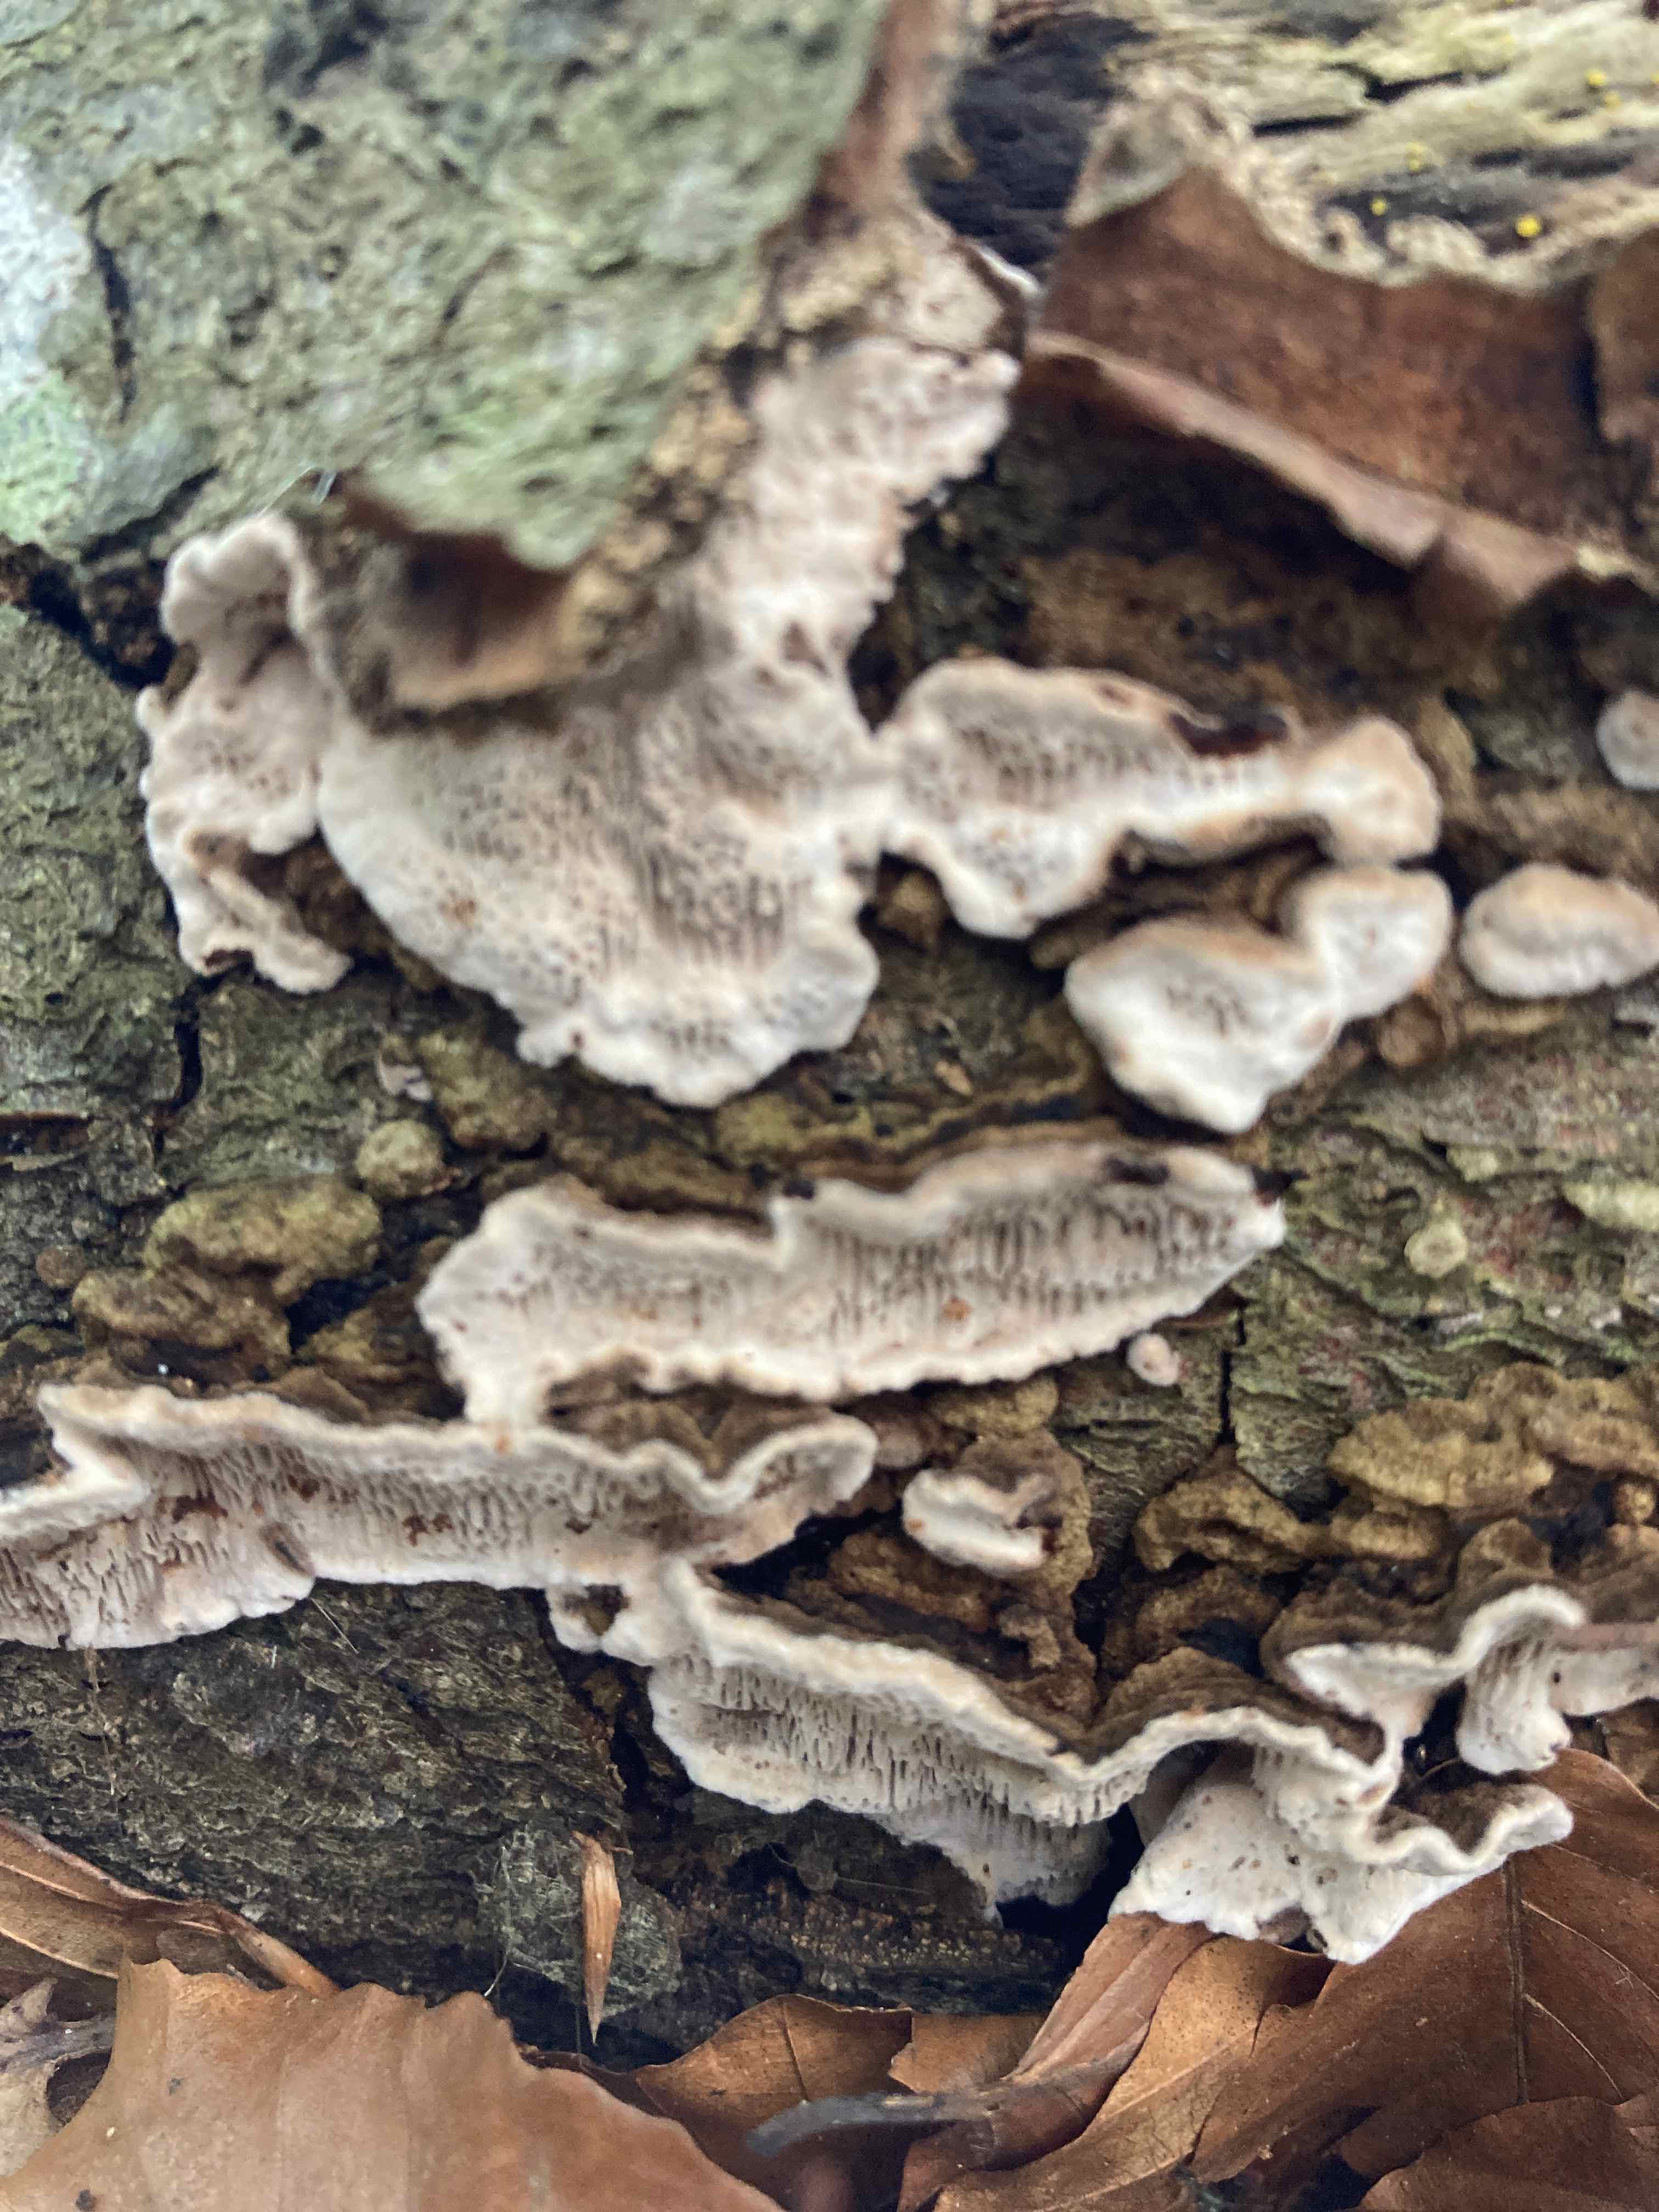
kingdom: Fungi
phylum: Basidiomycota
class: Agaricomycetes
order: Polyporales
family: Polyporaceae
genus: Podofomes
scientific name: Podofomes mollis
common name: blød begporesvamp
